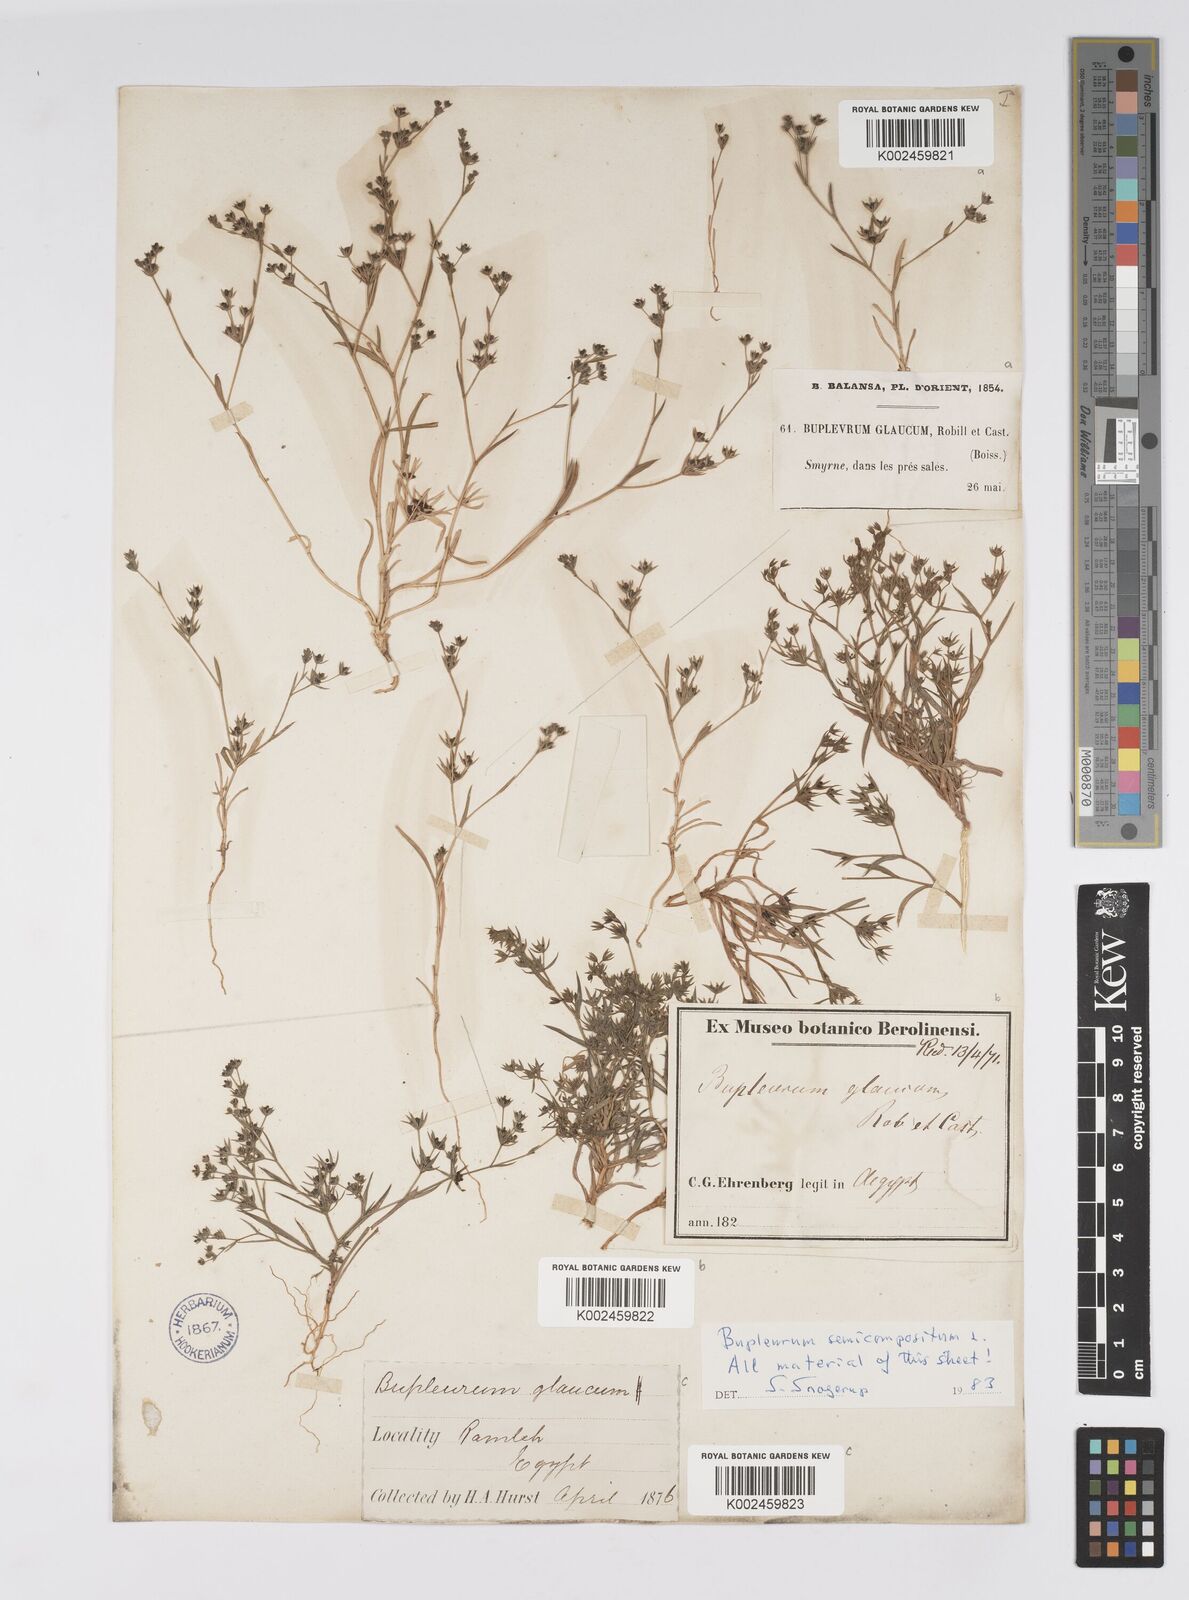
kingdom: Plantae
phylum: Tracheophyta
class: Magnoliopsida
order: Apiales
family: Apiaceae
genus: Bupleurum
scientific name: Bupleurum semicompositum
